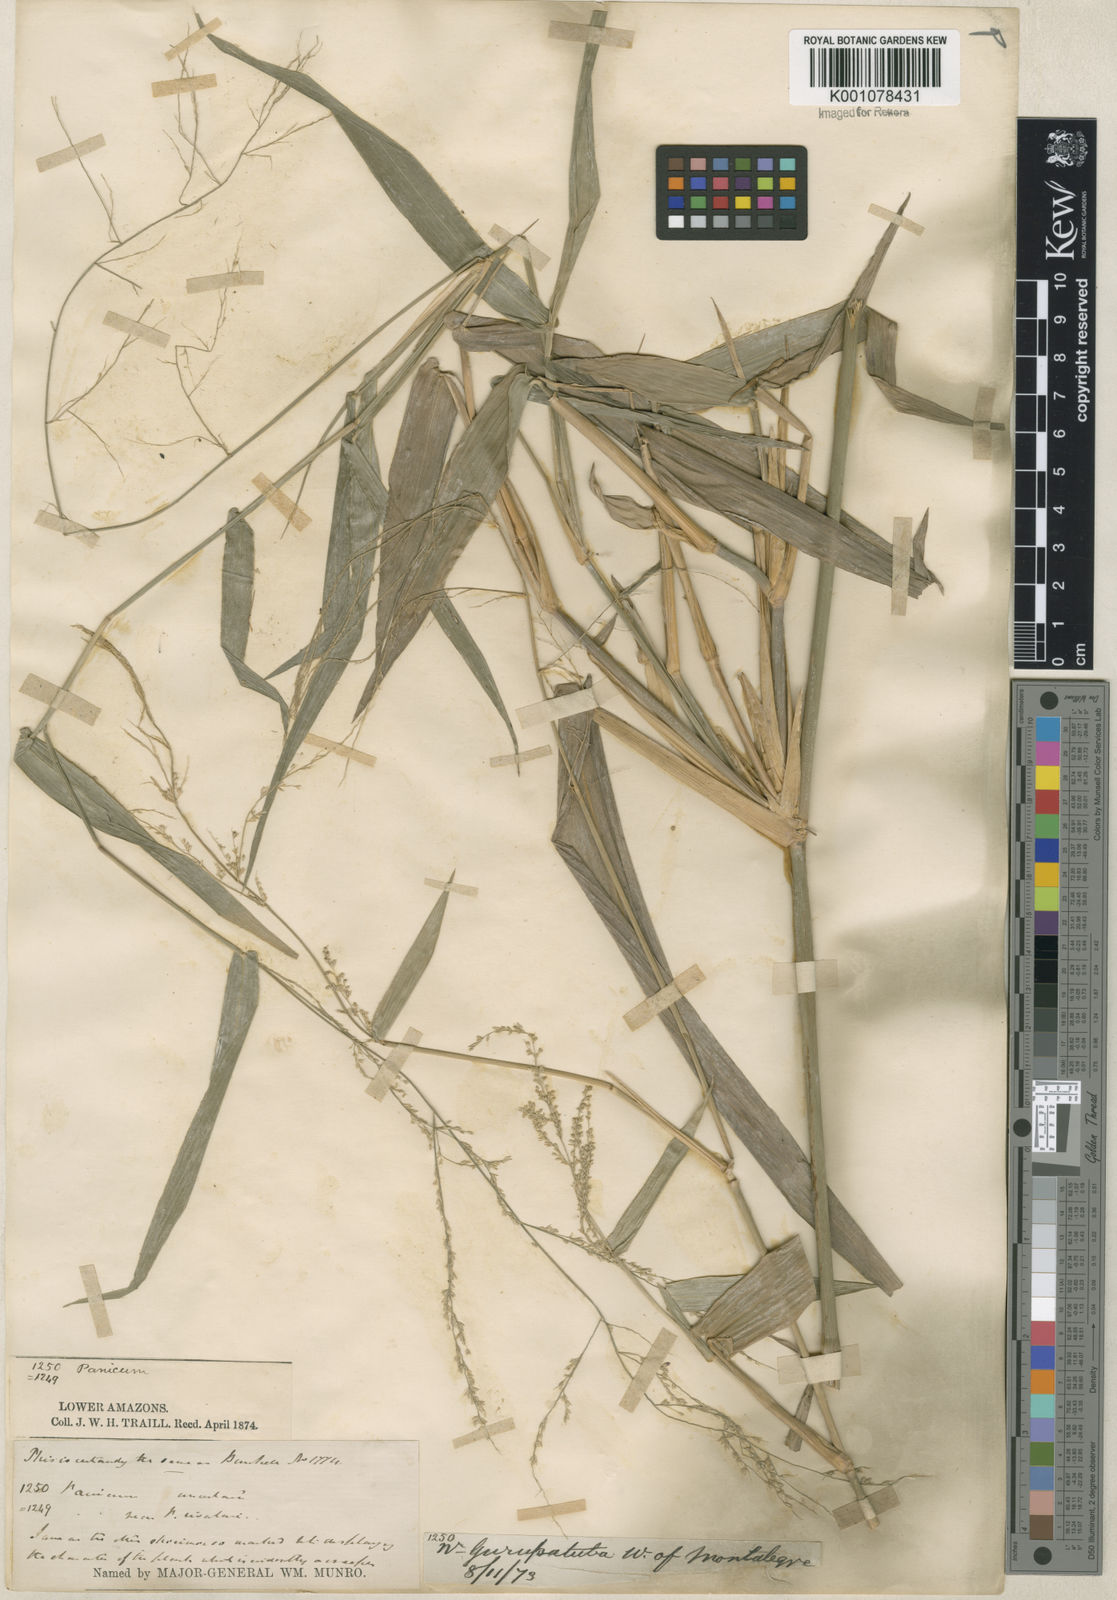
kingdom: Plantae
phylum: Tracheophyta
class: Liliopsida
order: Poales
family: Poaceae
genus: Rugoloa
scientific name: Rugoloa hylaeica
